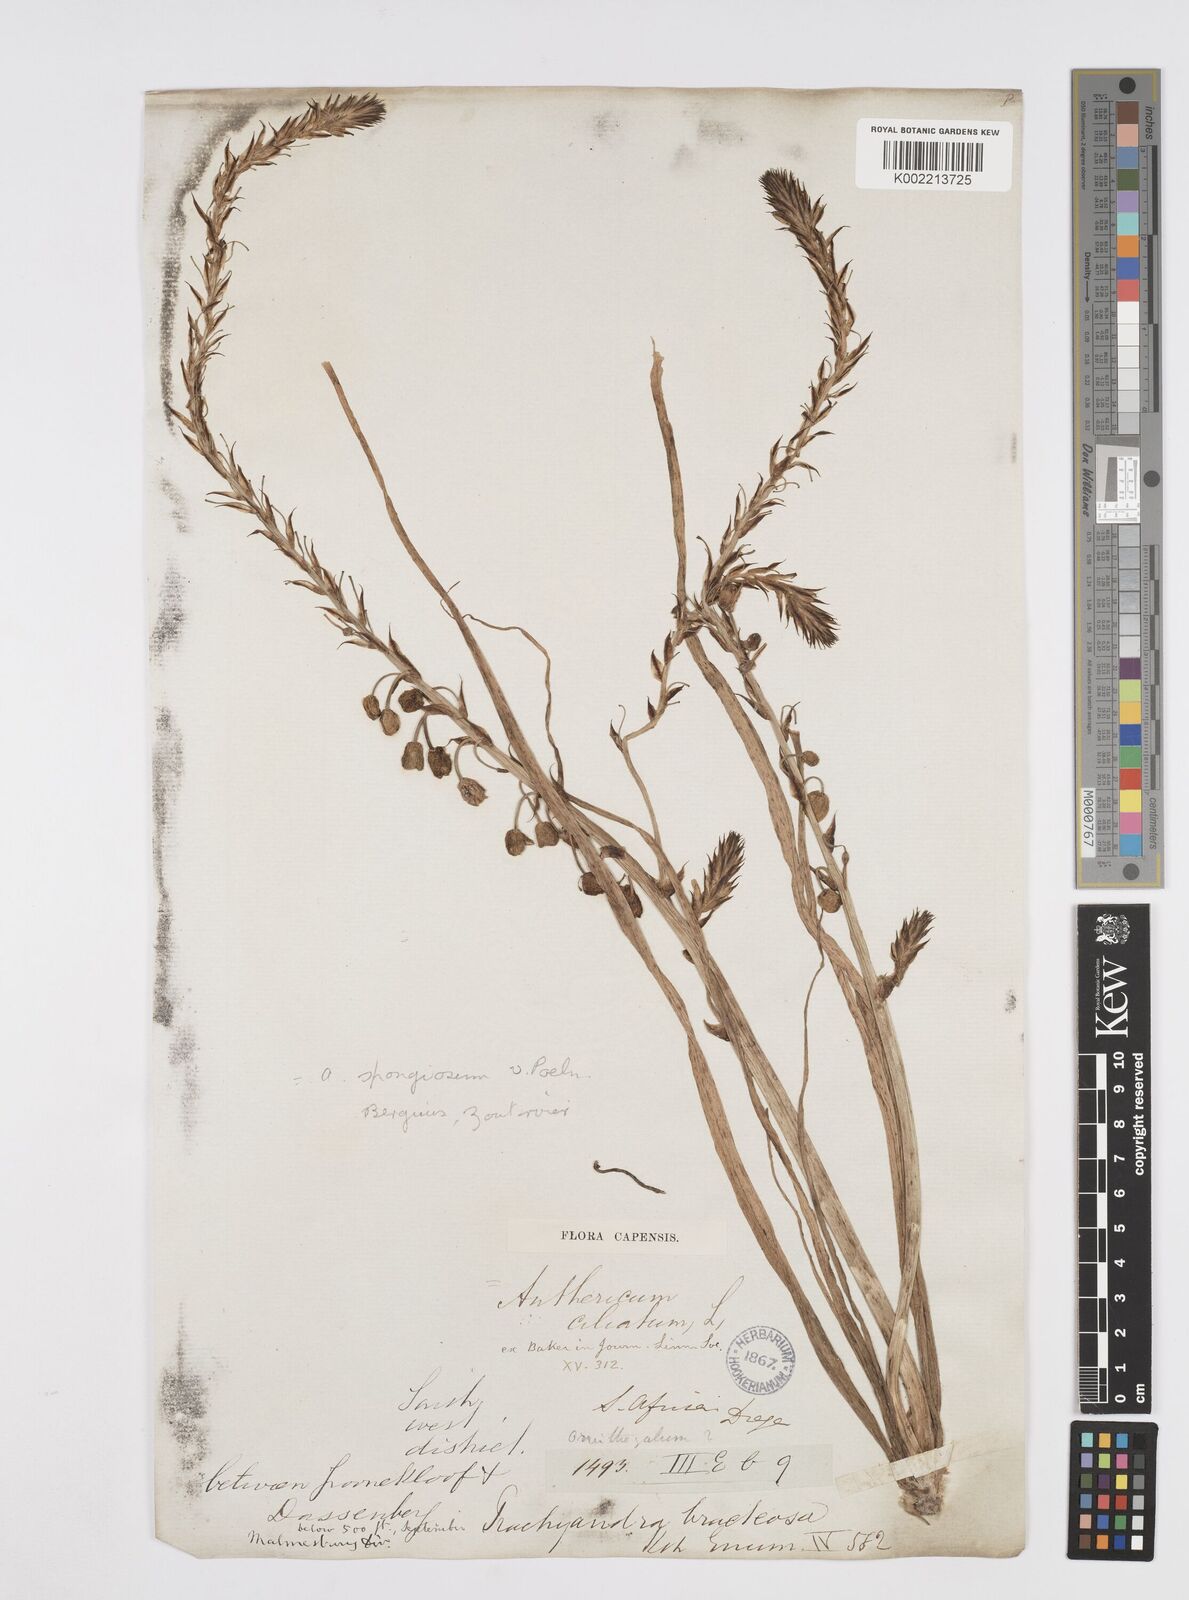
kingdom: Plantae
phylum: Tracheophyta
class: Liliopsida
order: Asparagales
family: Asphodelaceae
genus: Trachyandra
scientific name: Trachyandra ciliata
